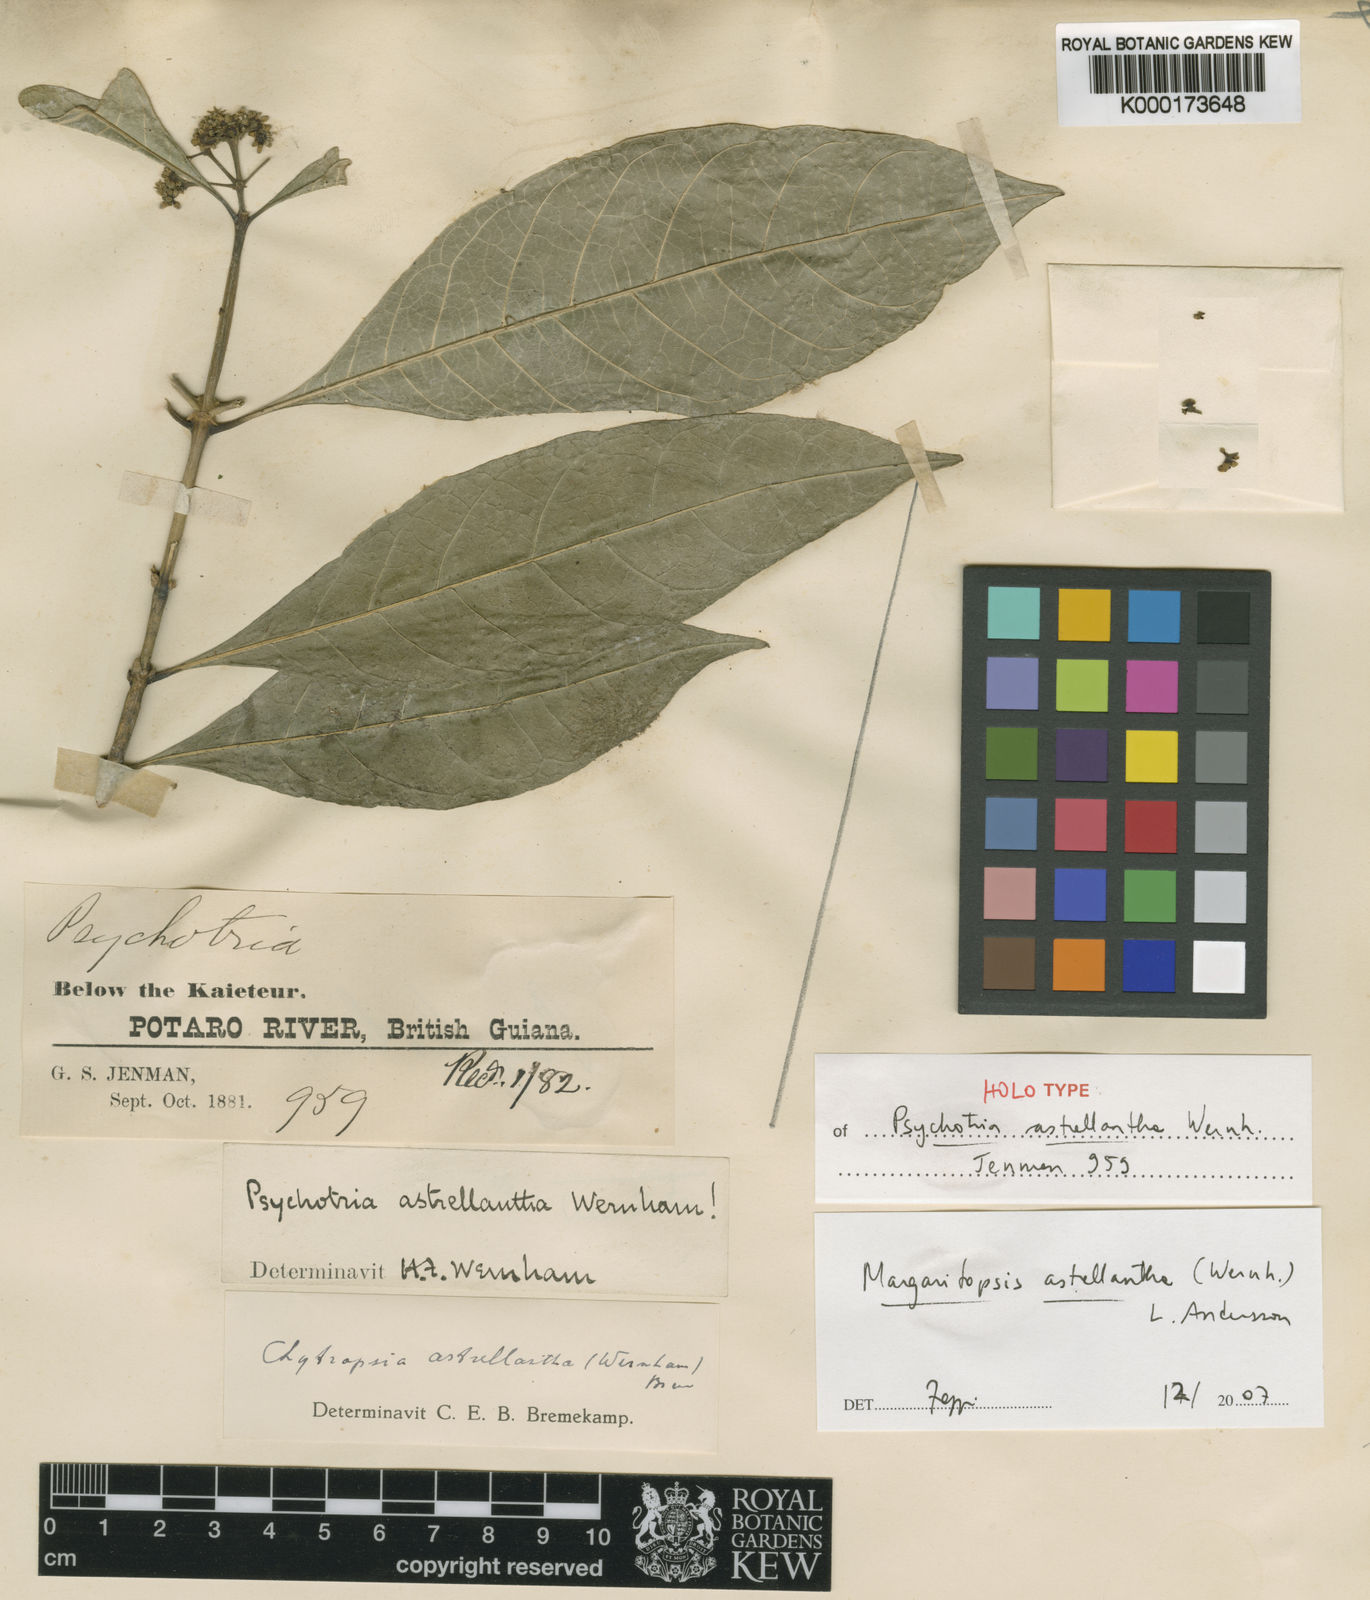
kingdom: Plantae
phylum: Tracheophyta
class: Magnoliopsida
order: Gentianales
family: Rubiaceae
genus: Eumachia
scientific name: Eumachia astrellantha
